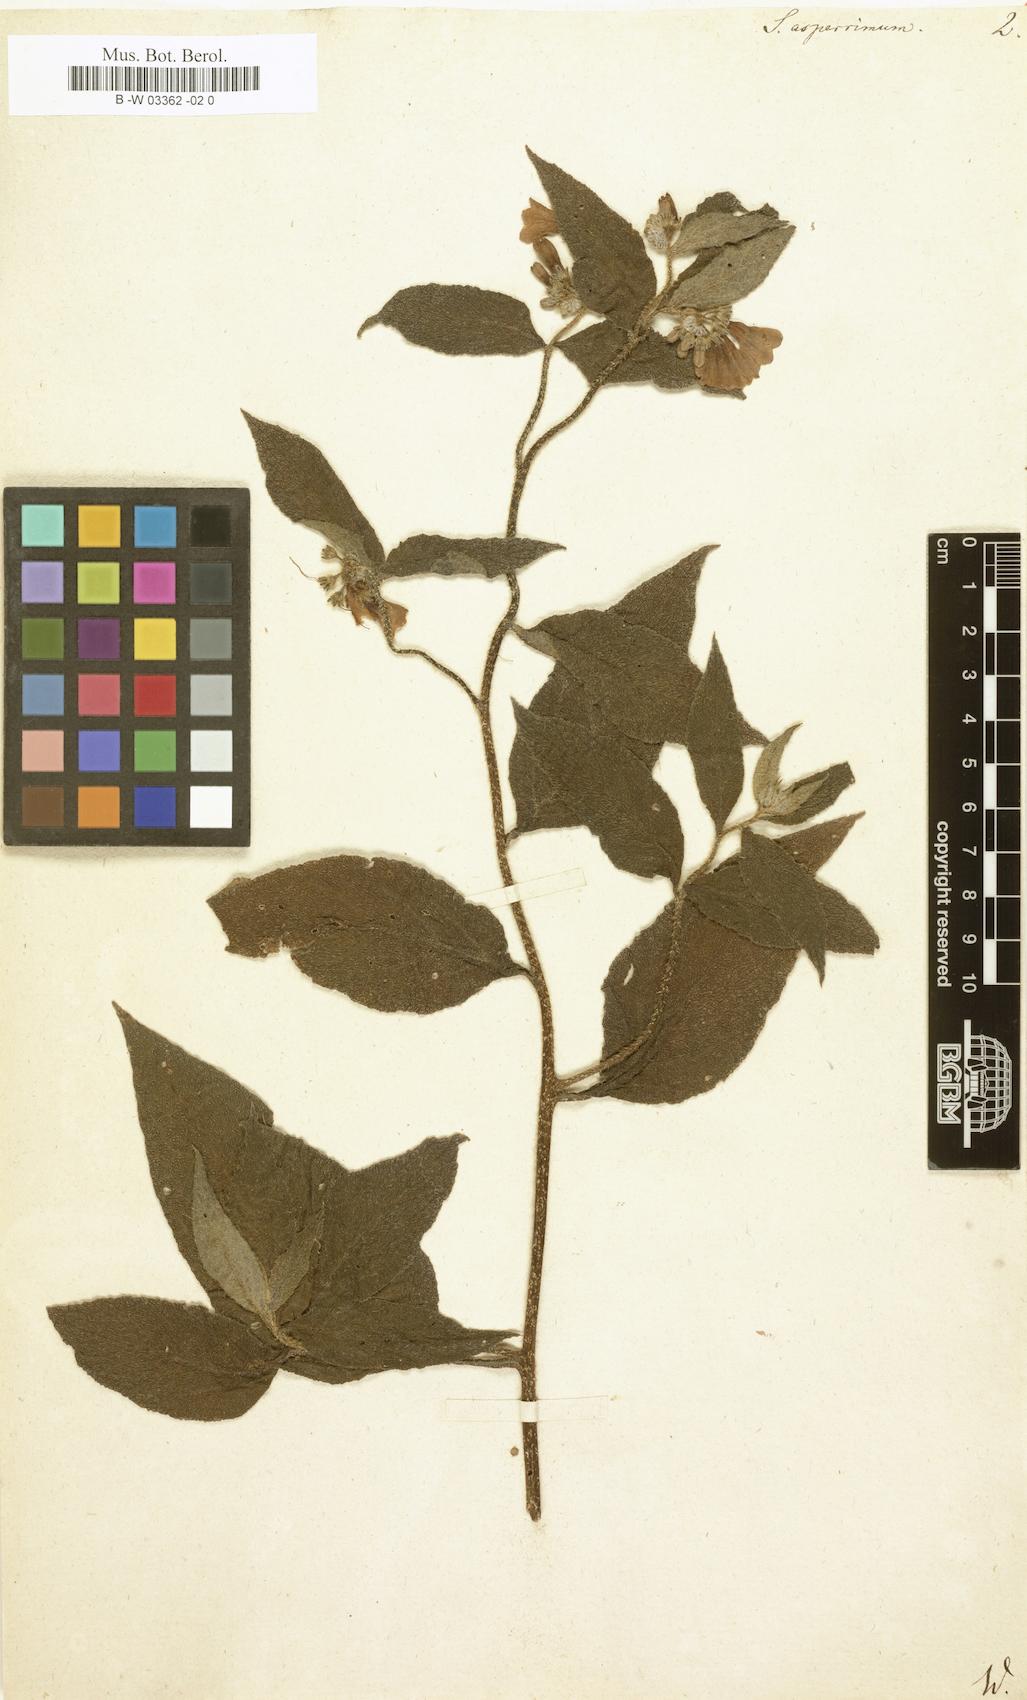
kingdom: Plantae
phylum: Tracheophyta
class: Magnoliopsida
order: Boraginales
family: Boraginaceae
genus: Symphytum
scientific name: Symphytum asperum
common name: Prickly comfrey
